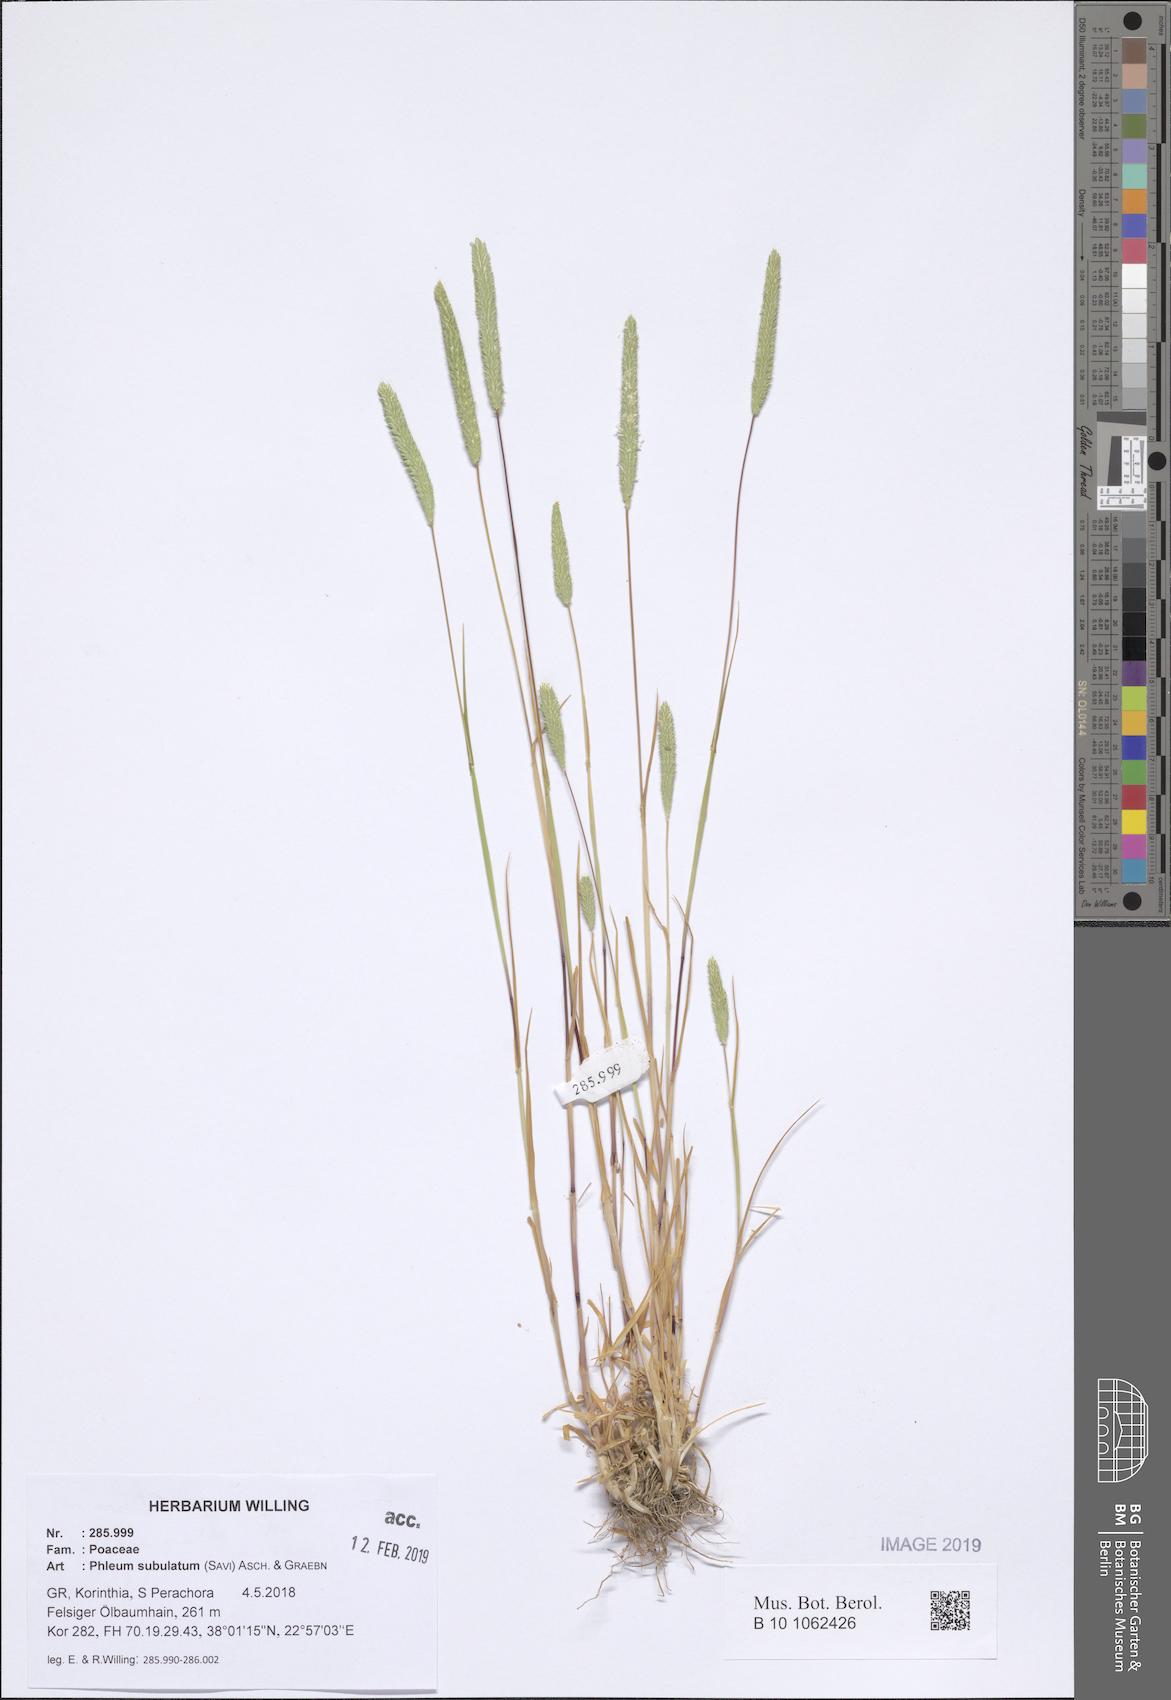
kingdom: Plantae
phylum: Tracheophyta
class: Liliopsida
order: Poales
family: Poaceae
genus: Phleum
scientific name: Phleum subulatum
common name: Italian timothy
